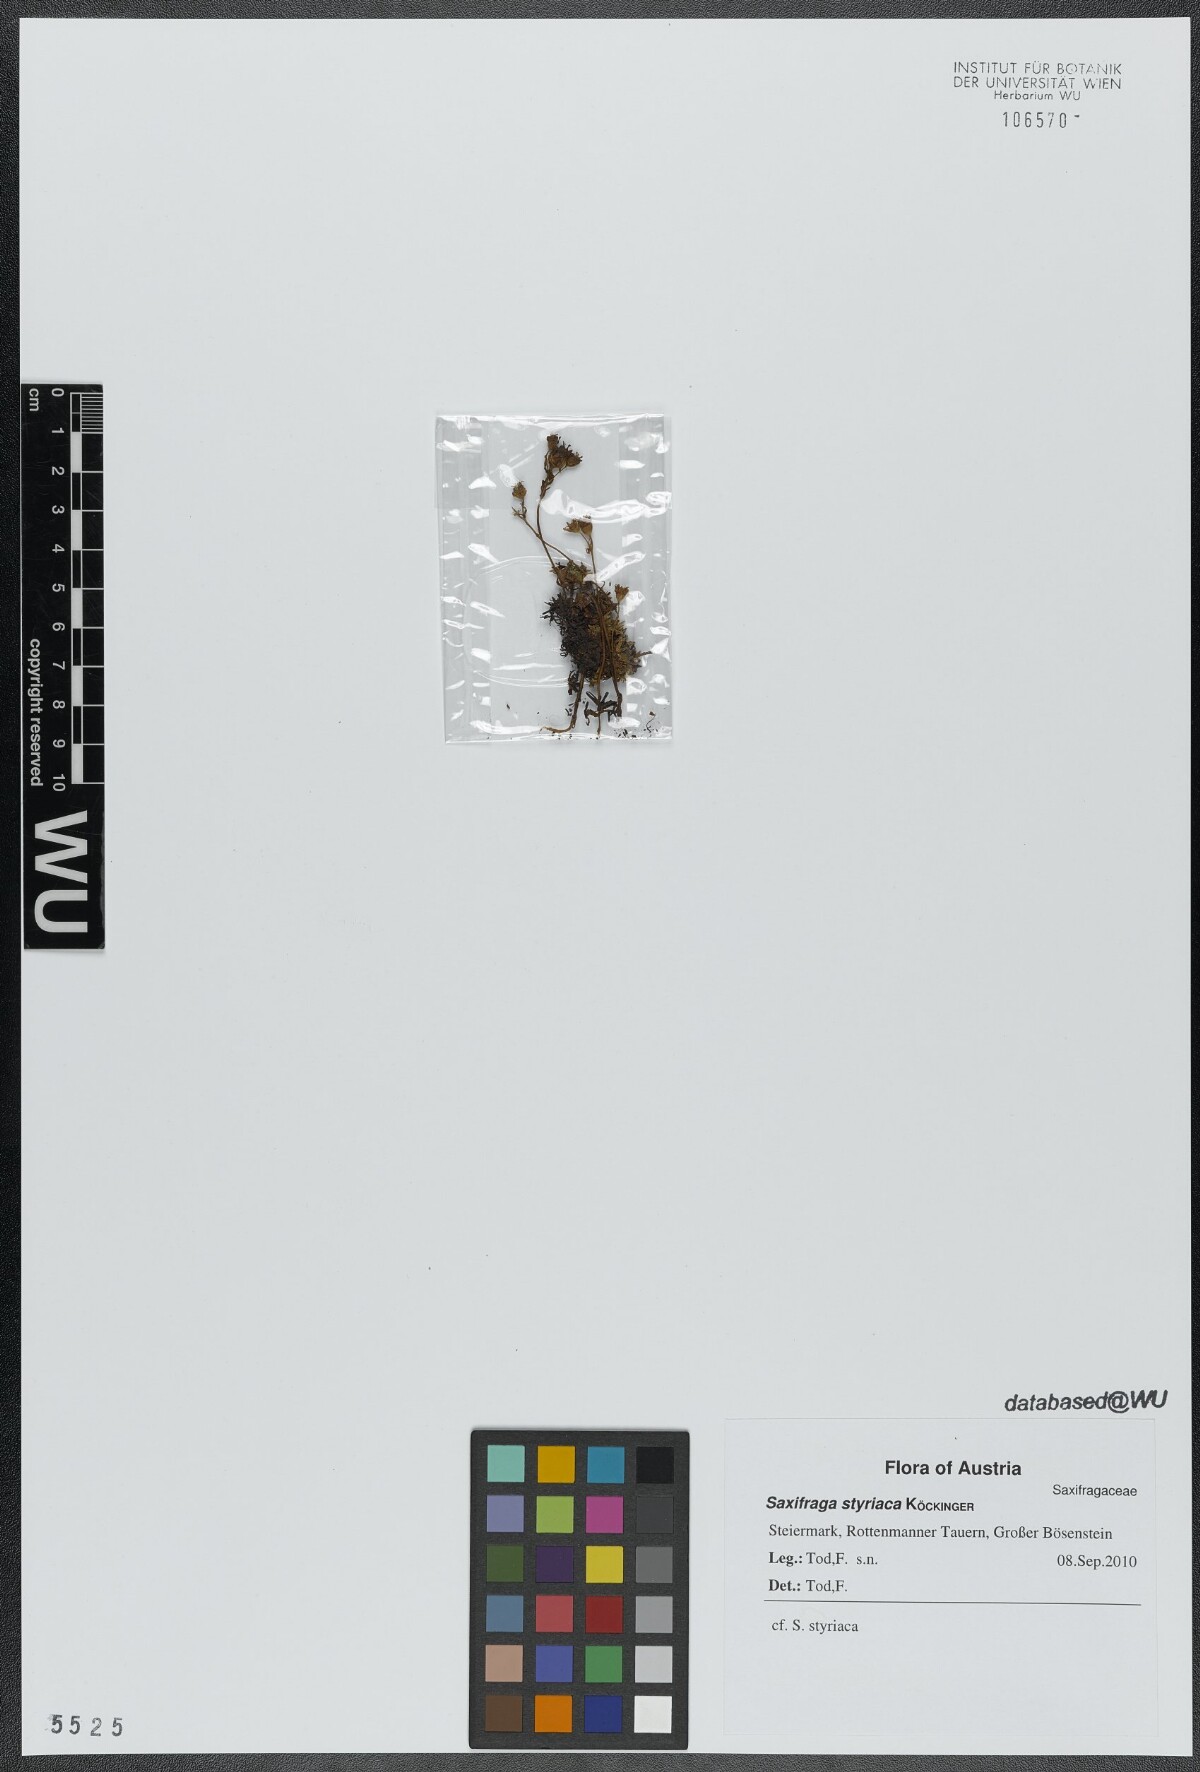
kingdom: Plantae
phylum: Tracheophyta
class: Magnoliopsida
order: Saxifragales
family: Saxifragaceae
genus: Saxifraga
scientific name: Saxifraga styriaca
